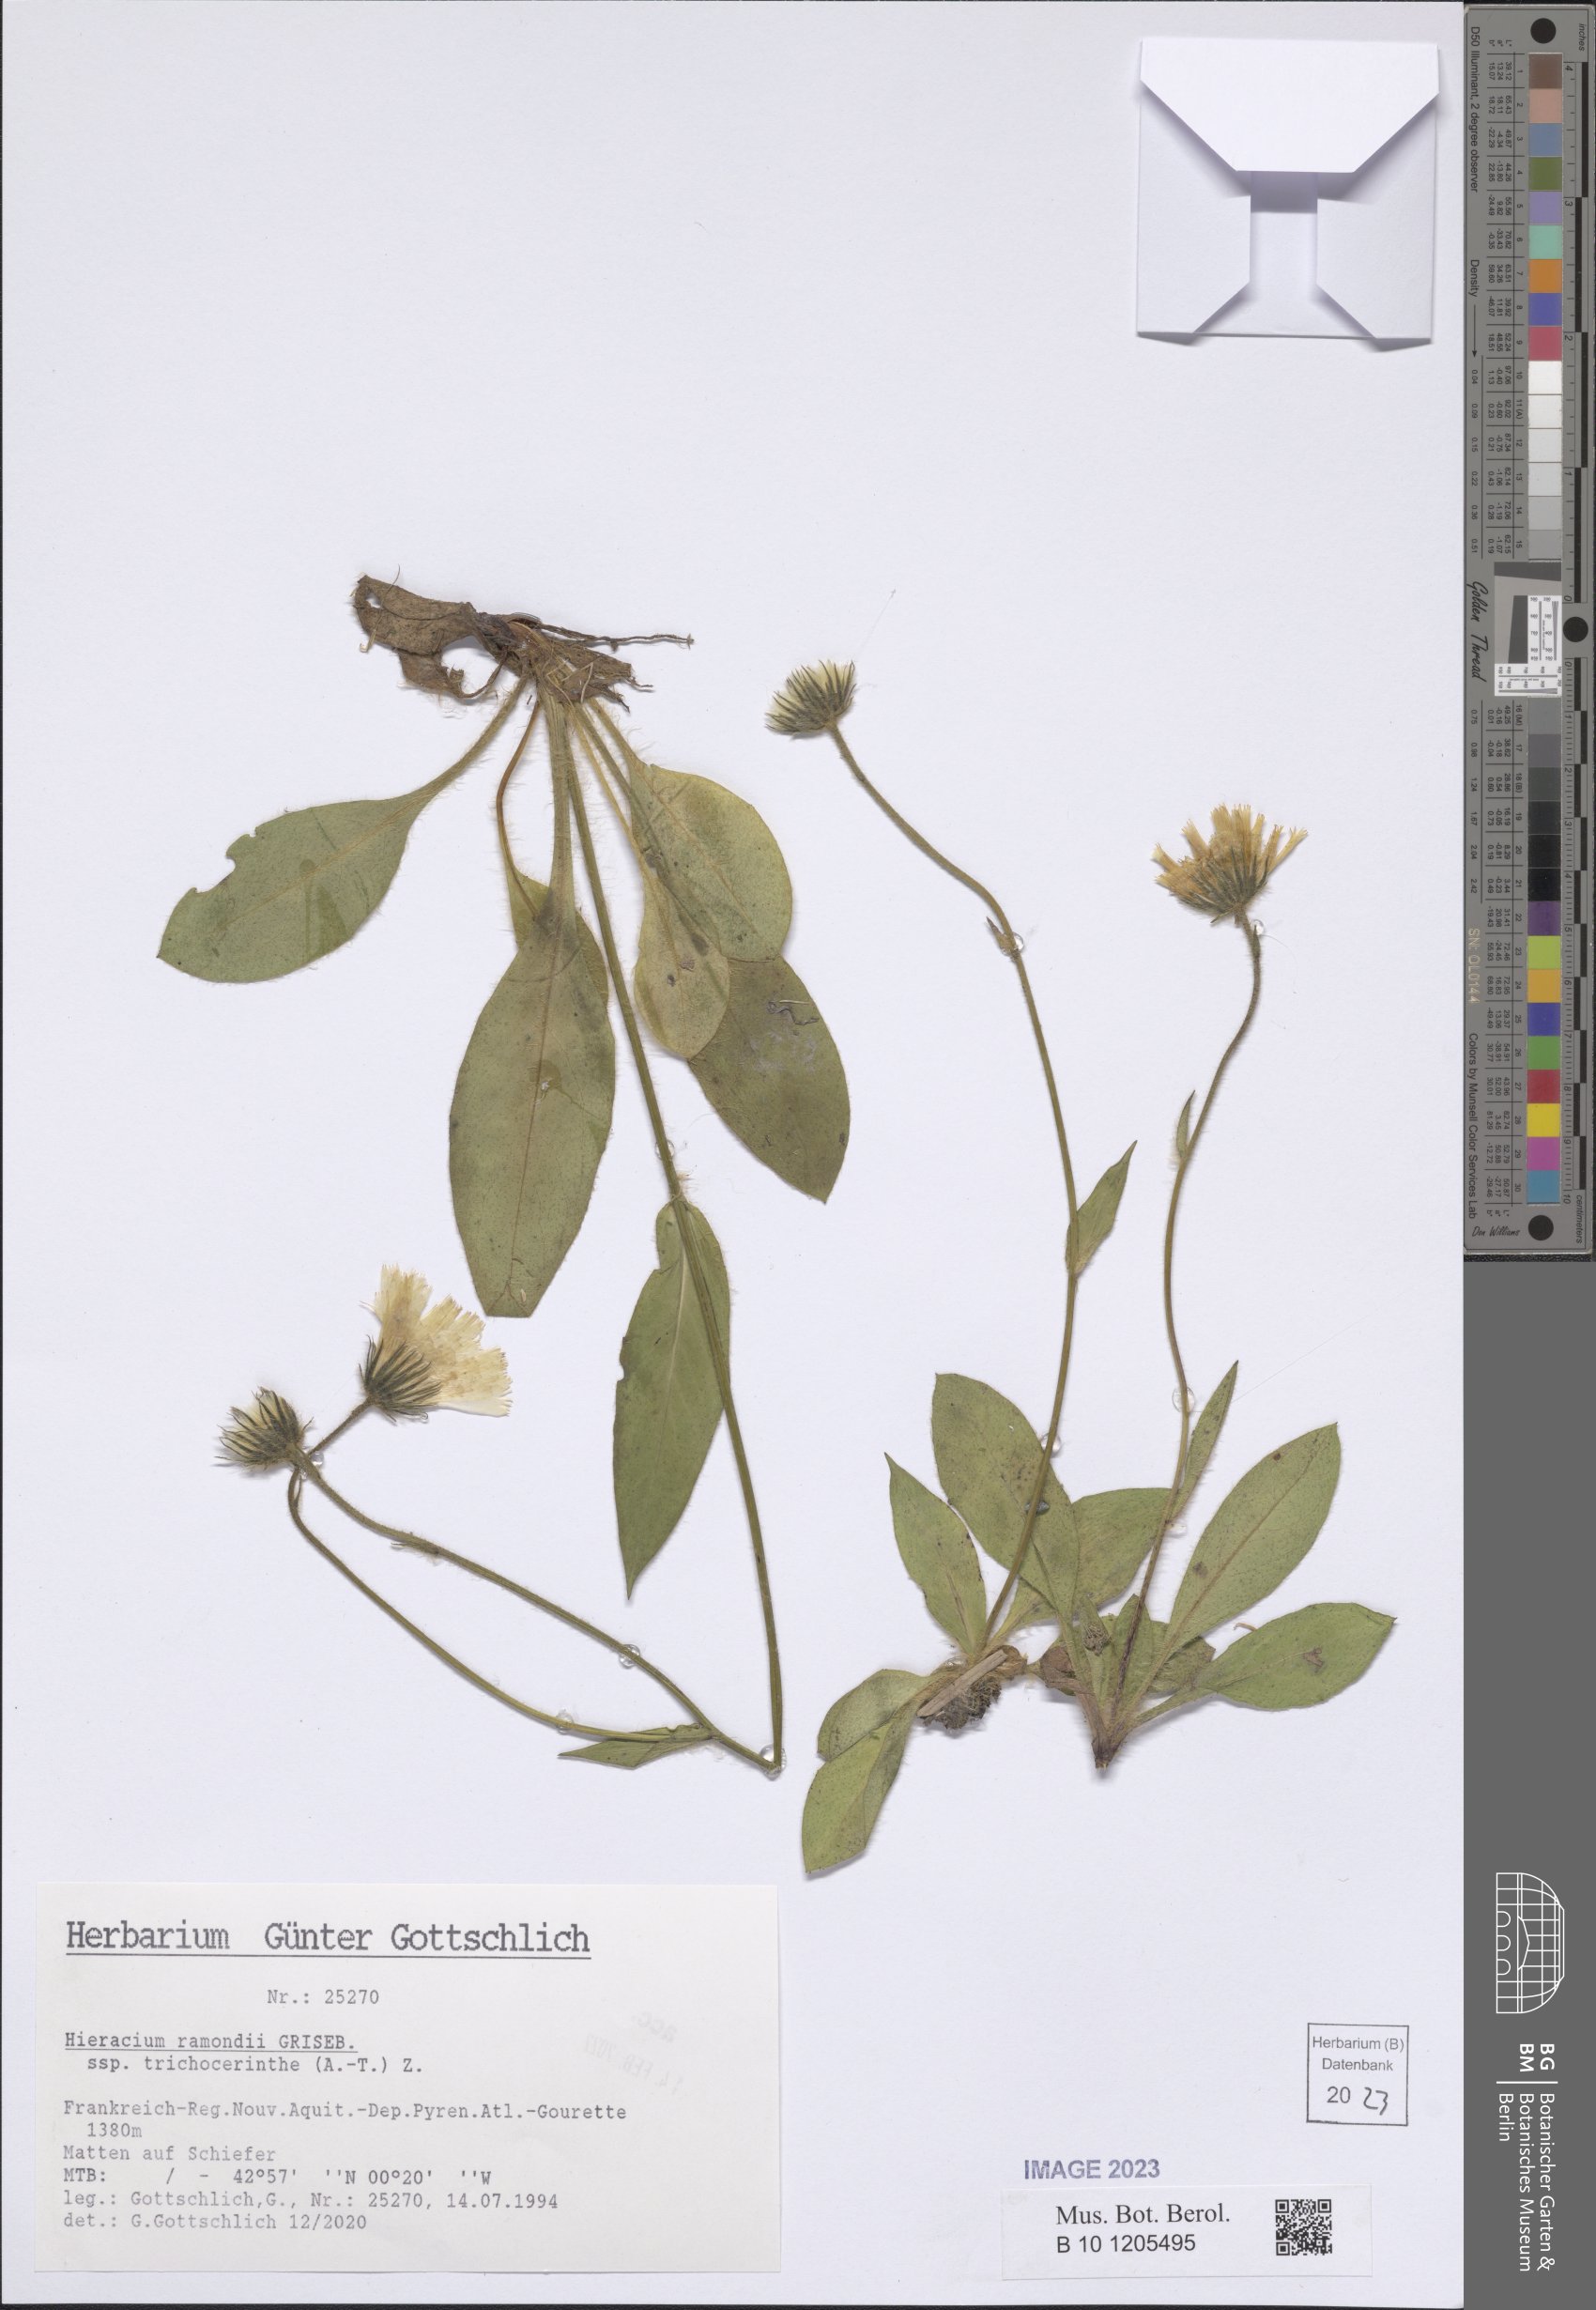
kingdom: Plantae
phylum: Tracheophyta
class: Magnoliopsida
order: Asterales
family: Asteraceae
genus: Hieracium
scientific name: Hieracium cryptanthum
